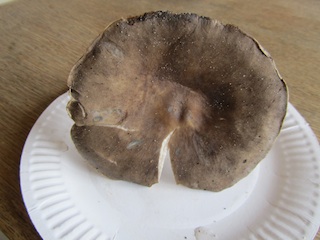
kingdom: Fungi
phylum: Basidiomycota
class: Agaricomycetes
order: Agaricales
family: Tricholomataceae
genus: Melanoleuca
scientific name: Melanoleuca grammopodia
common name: stribestokket munkehat
